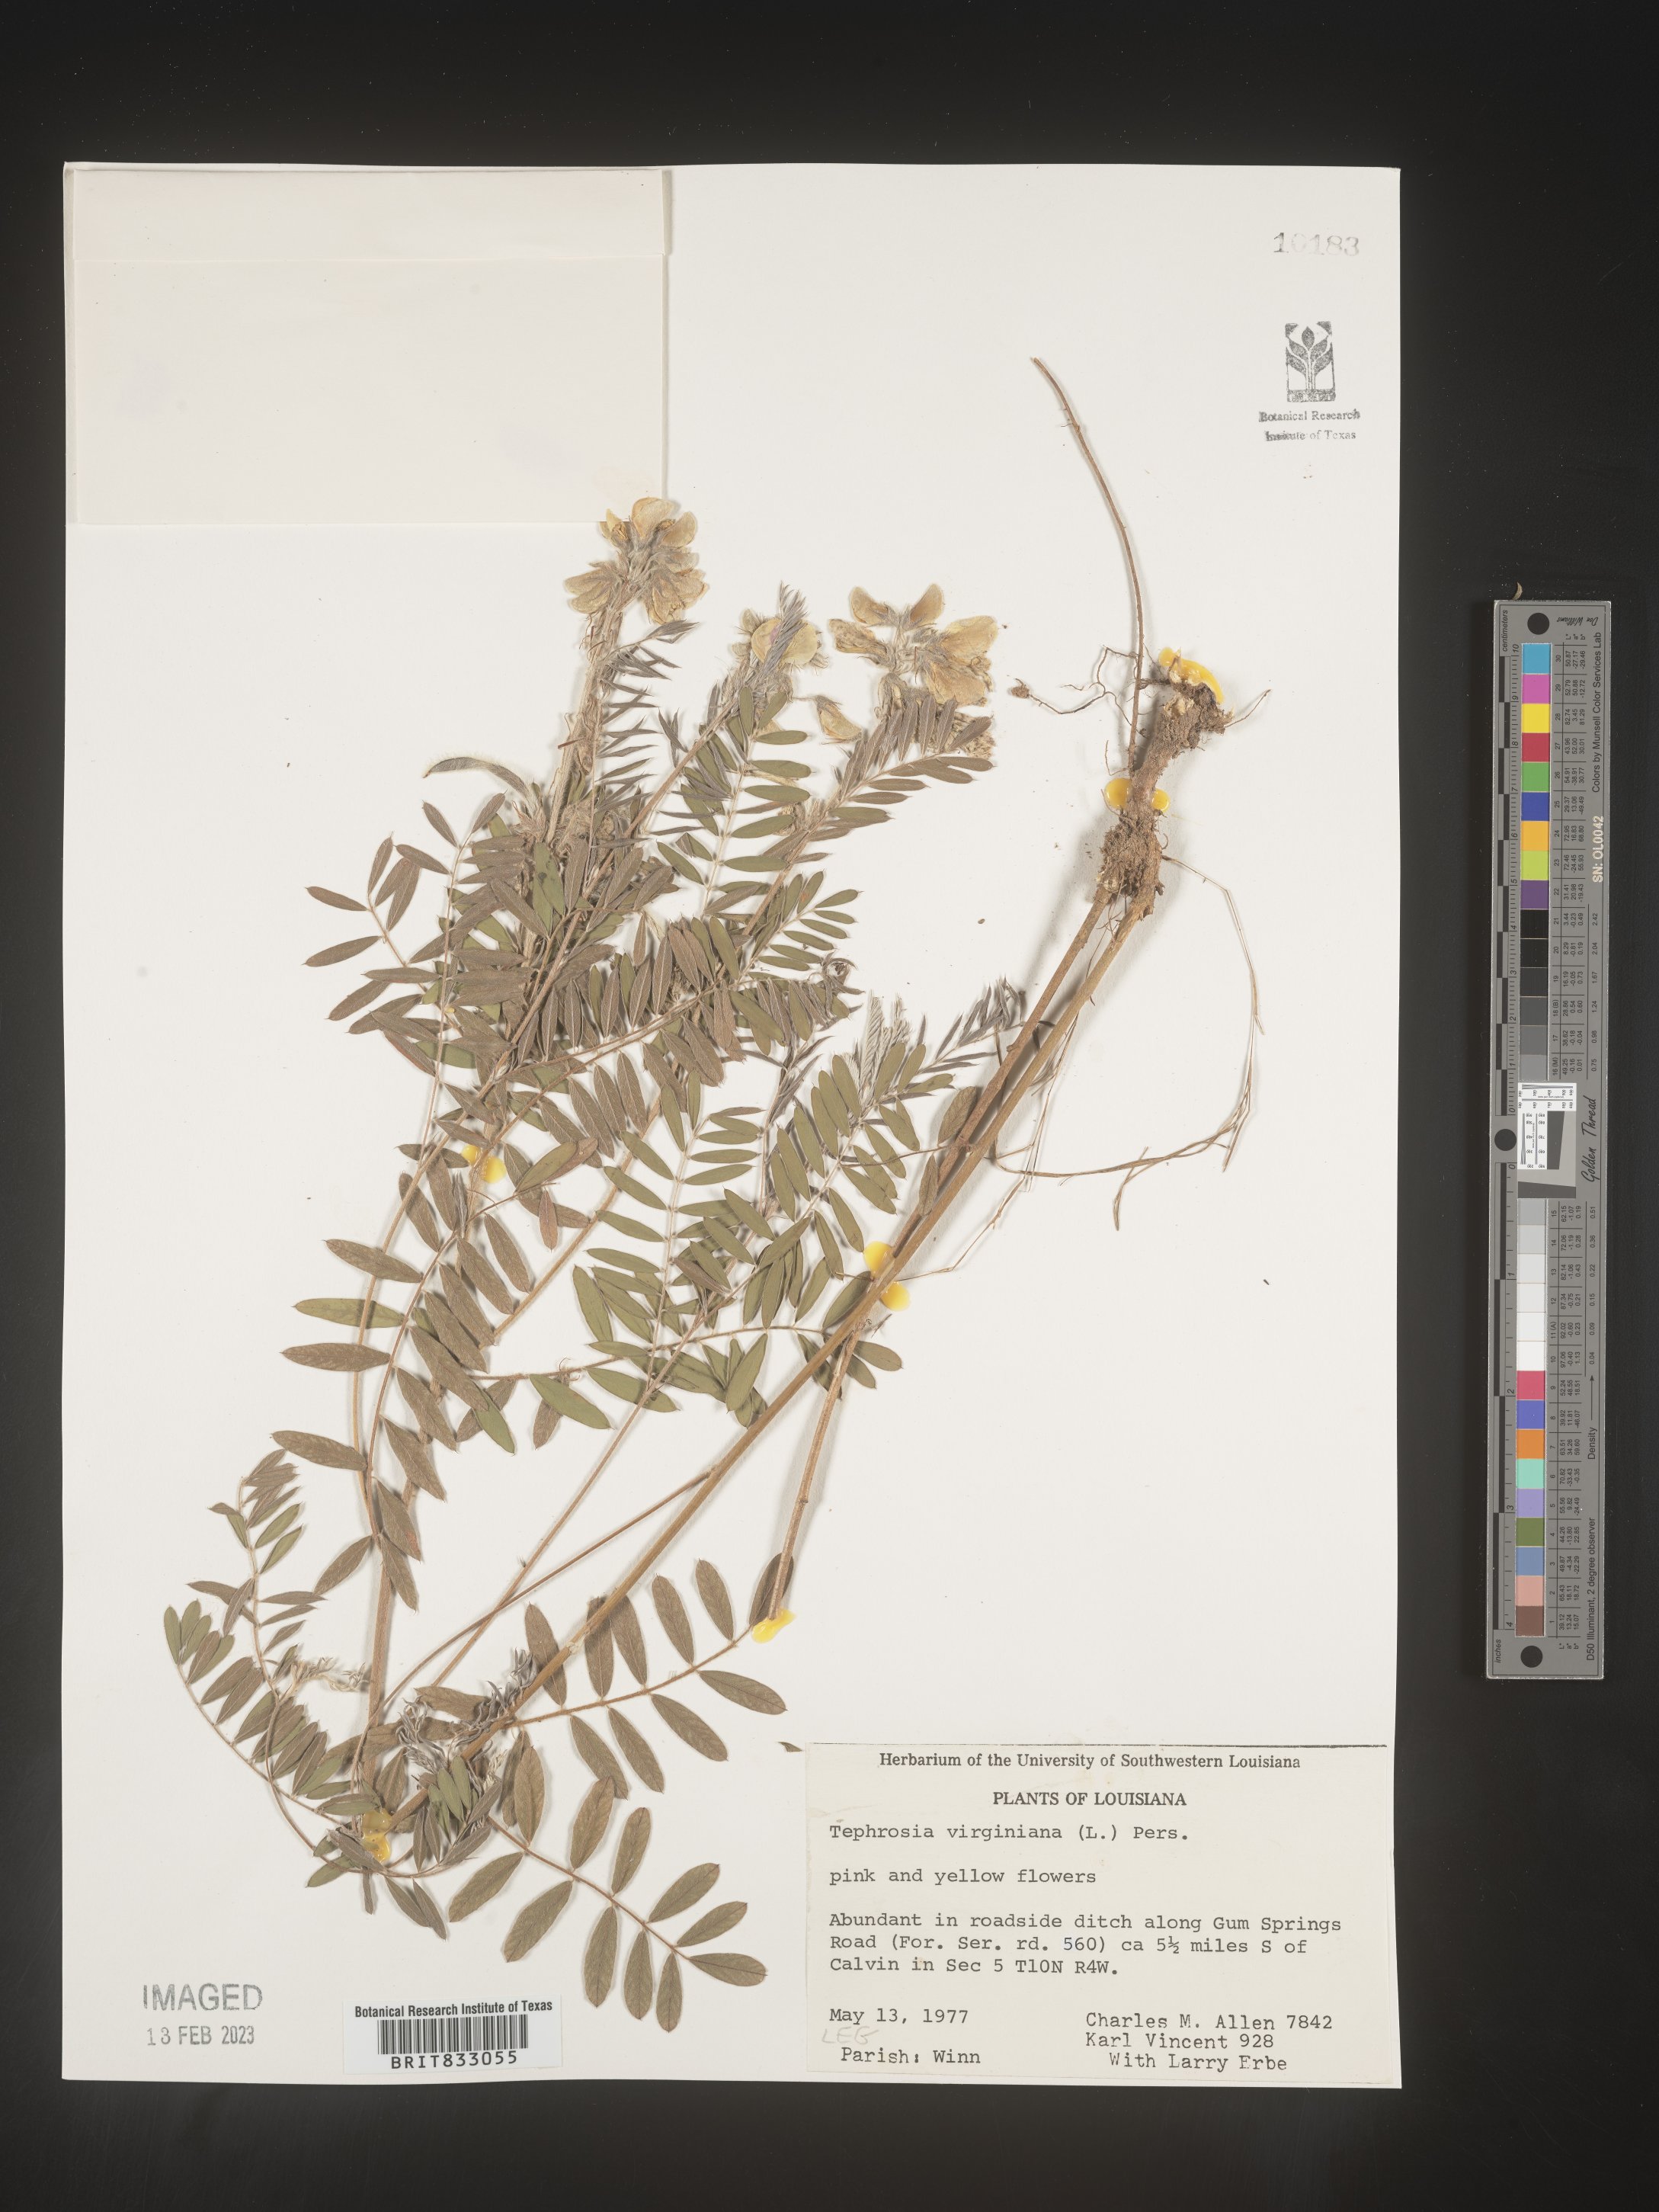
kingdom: Plantae
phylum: Tracheophyta
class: Magnoliopsida
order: Fabales
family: Fabaceae
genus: Tephrosia
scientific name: Tephrosia virginiana
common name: Rabbit-pea
